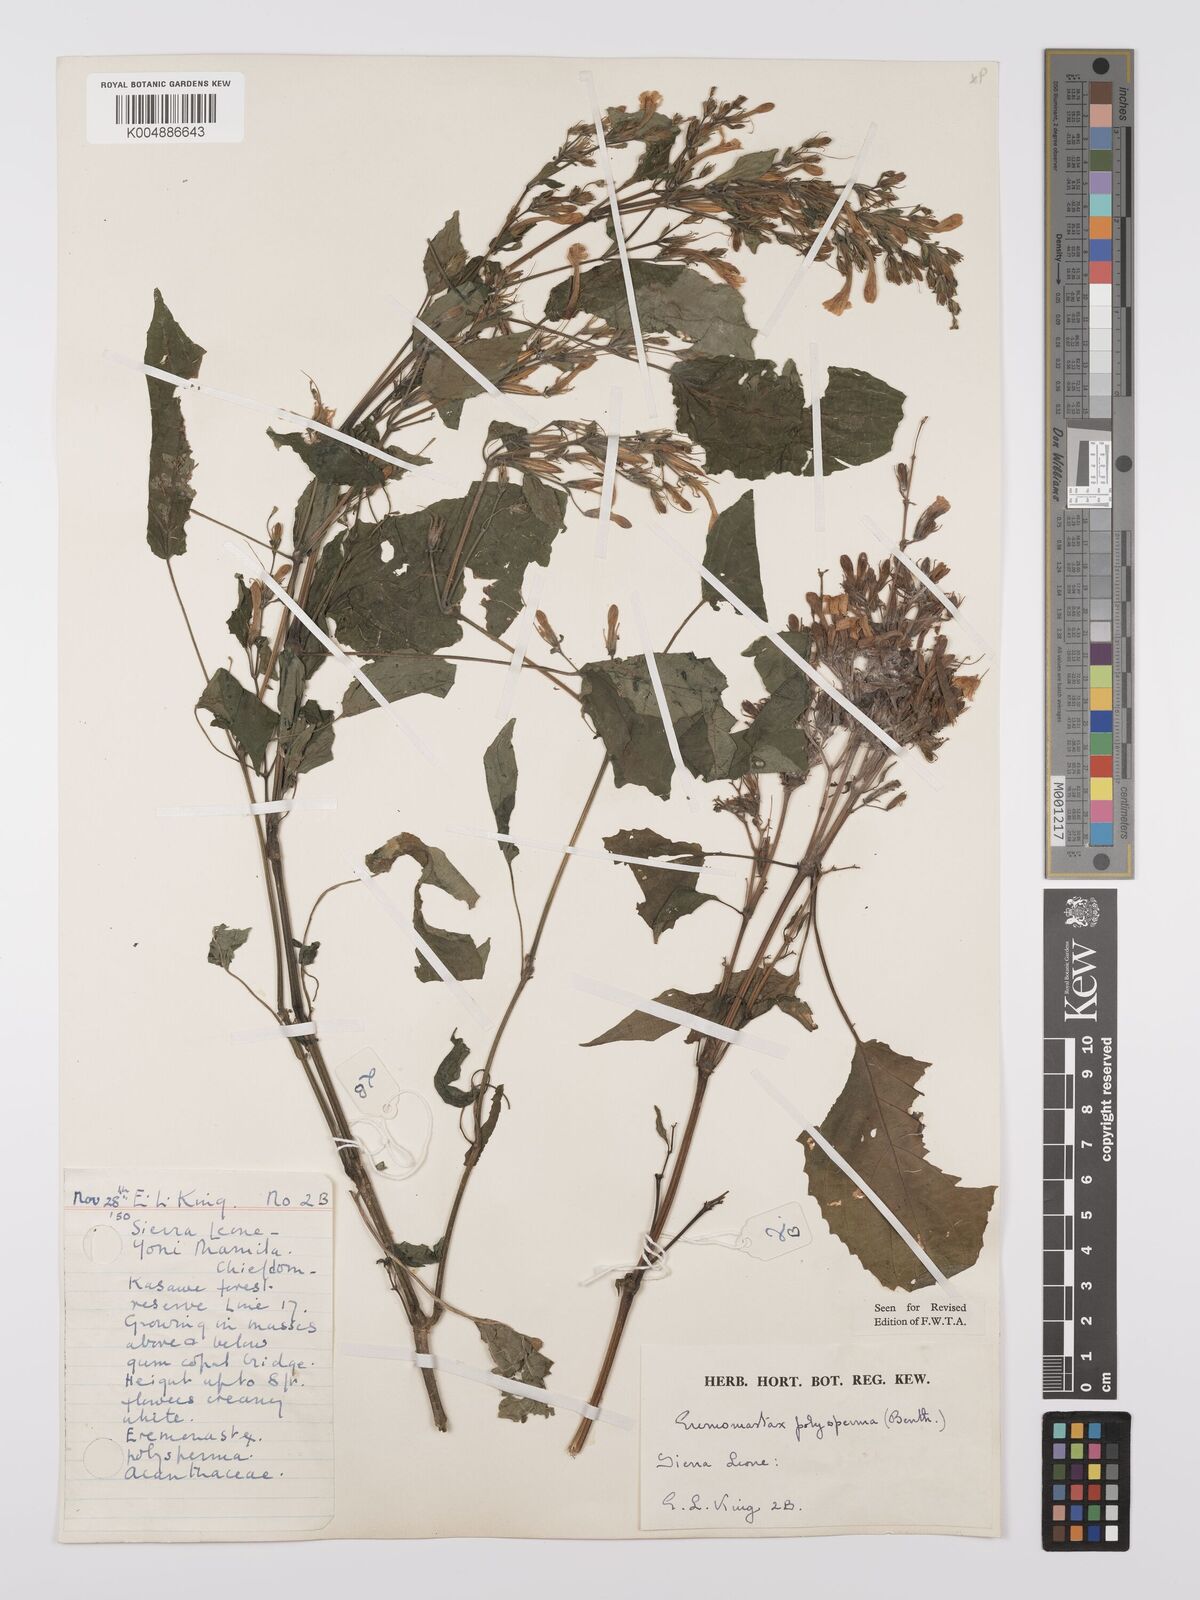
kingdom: Plantae
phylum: Tracheophyta
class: Magnoliopsida
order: Lamiales
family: Acanthaceae
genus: Eremomastax
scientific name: Eremomastax speciosa
